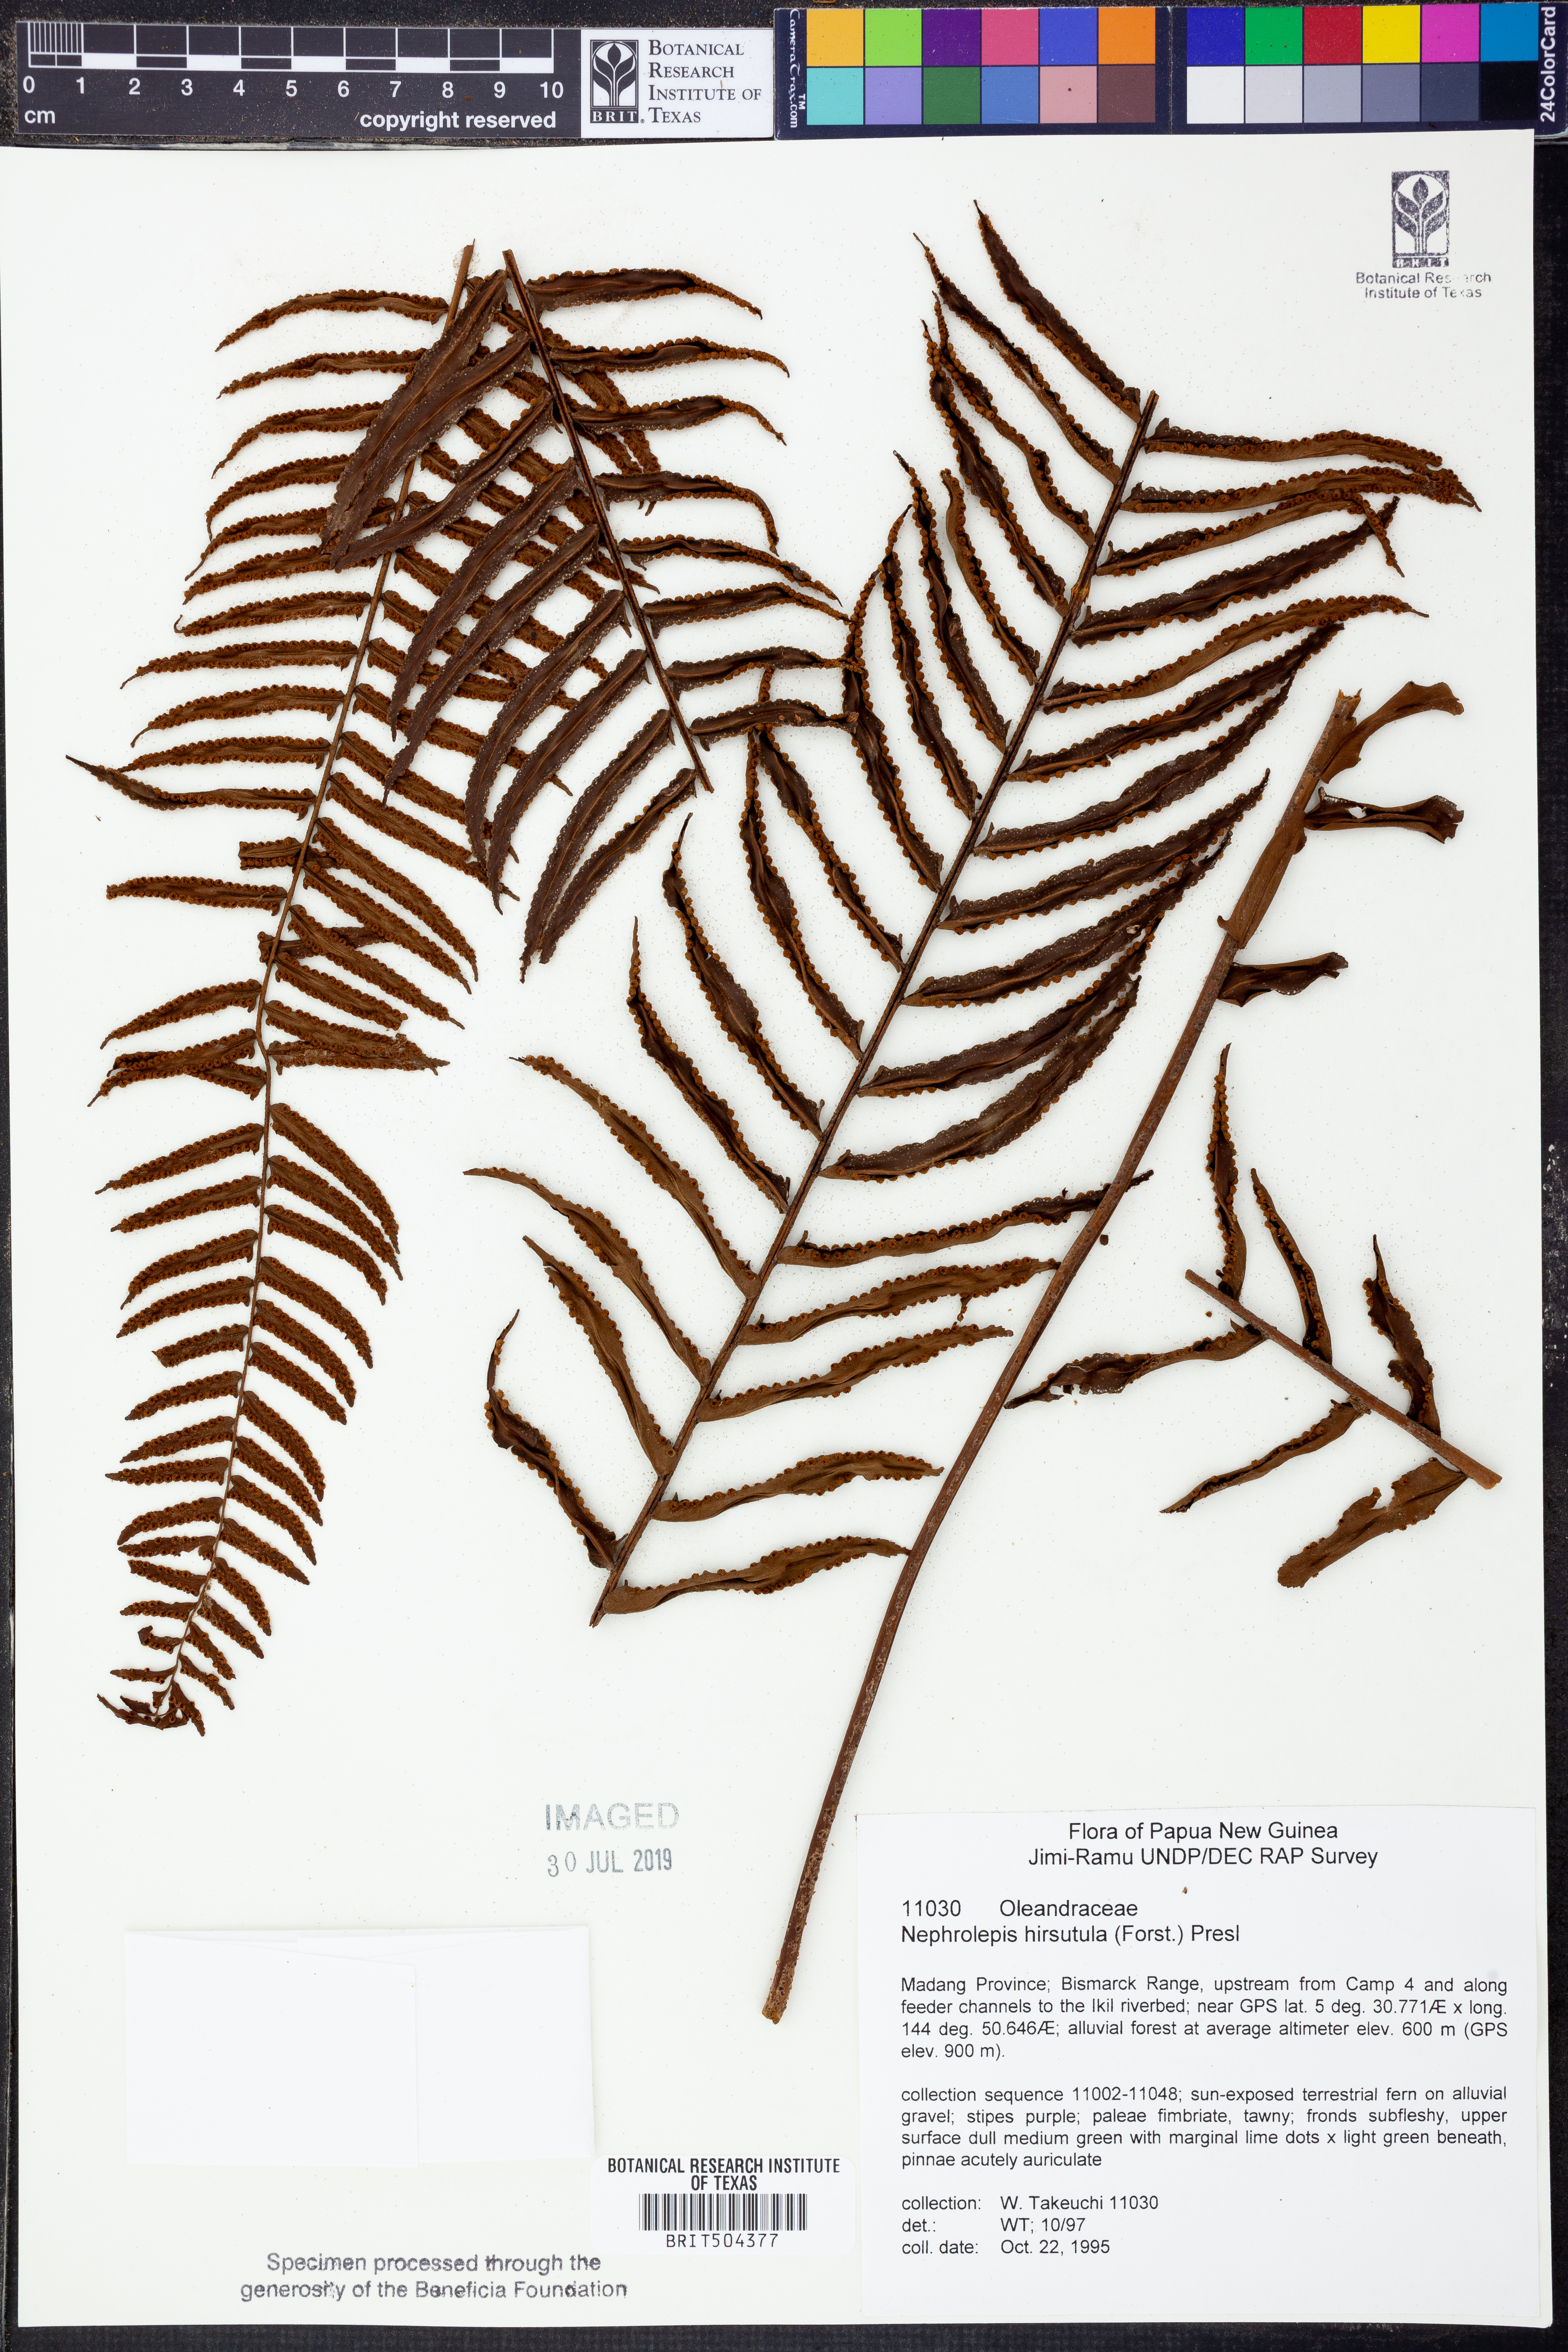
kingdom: Plantae
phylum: Tracheophyta
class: Polypodiopsida
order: Polypodiales
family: Nephrolepidaceae
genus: Nephrolepis
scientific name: Nephrolepis hirsutula
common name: Asian sword fern
